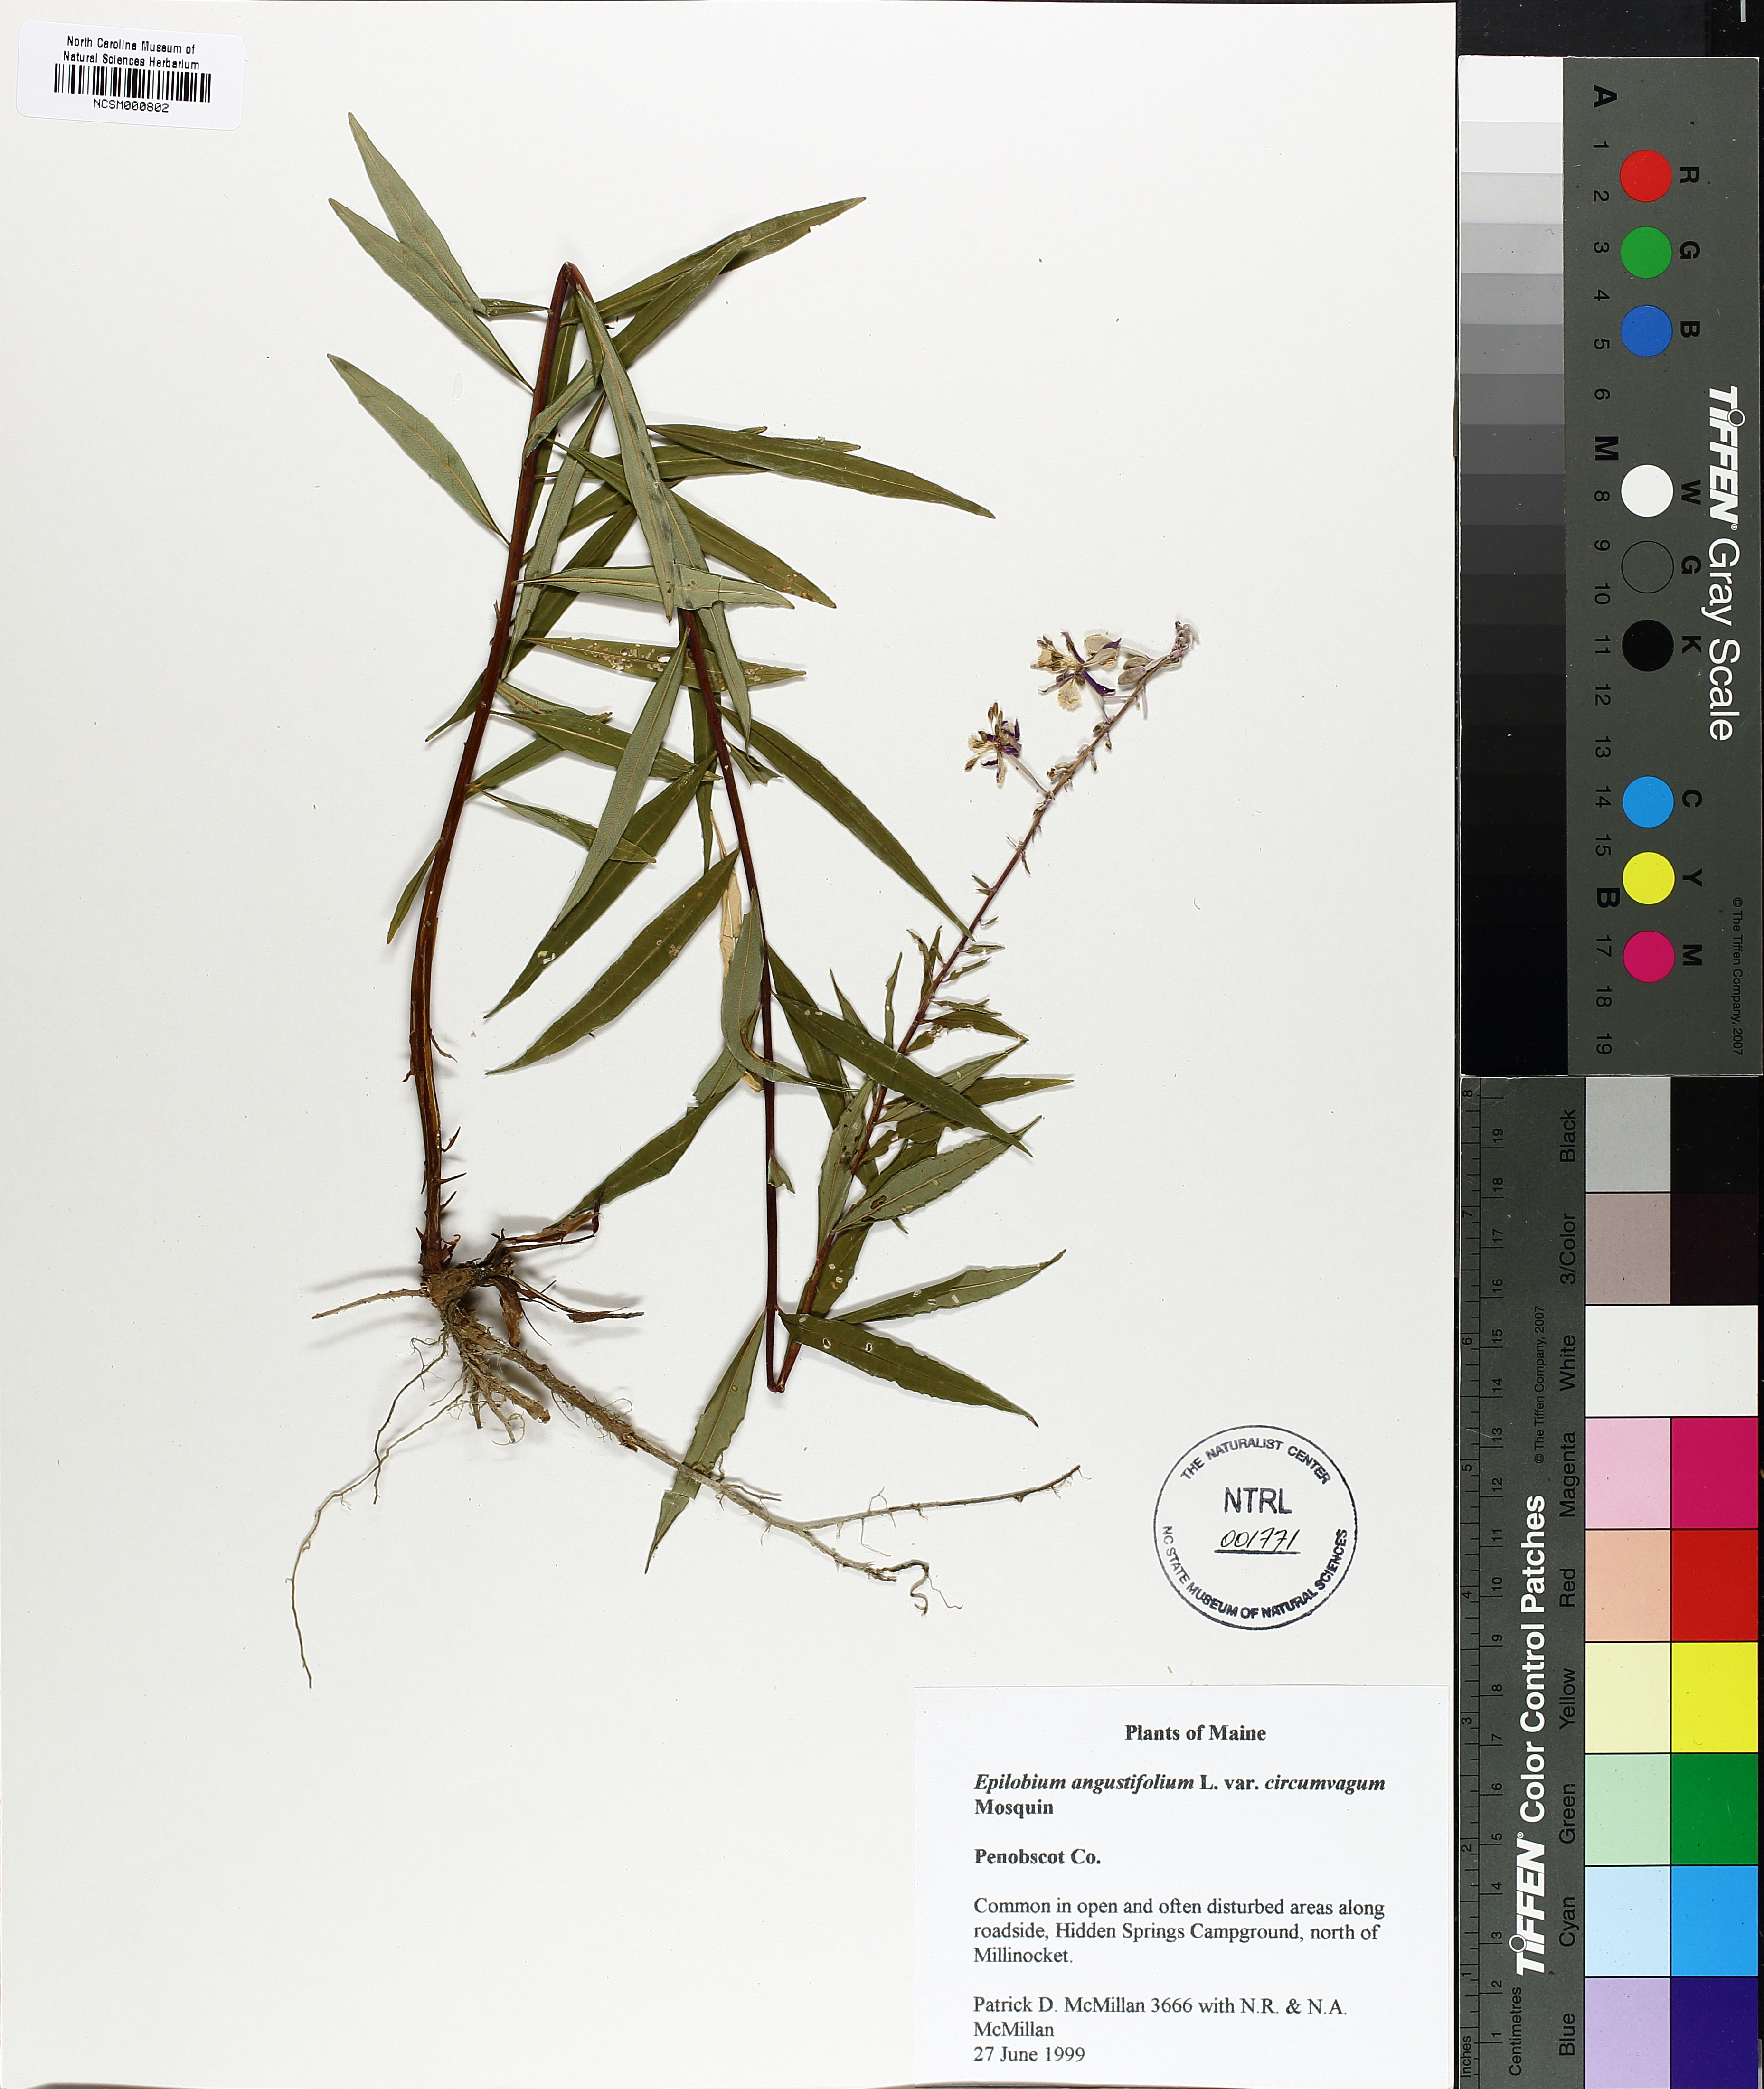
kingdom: Plantae
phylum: Tracheophyta
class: Magnoliopsida
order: Myrtales
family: Onagraceae
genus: Chamaenerion
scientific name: Chamaenerion angustifolium
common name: Fireweed
